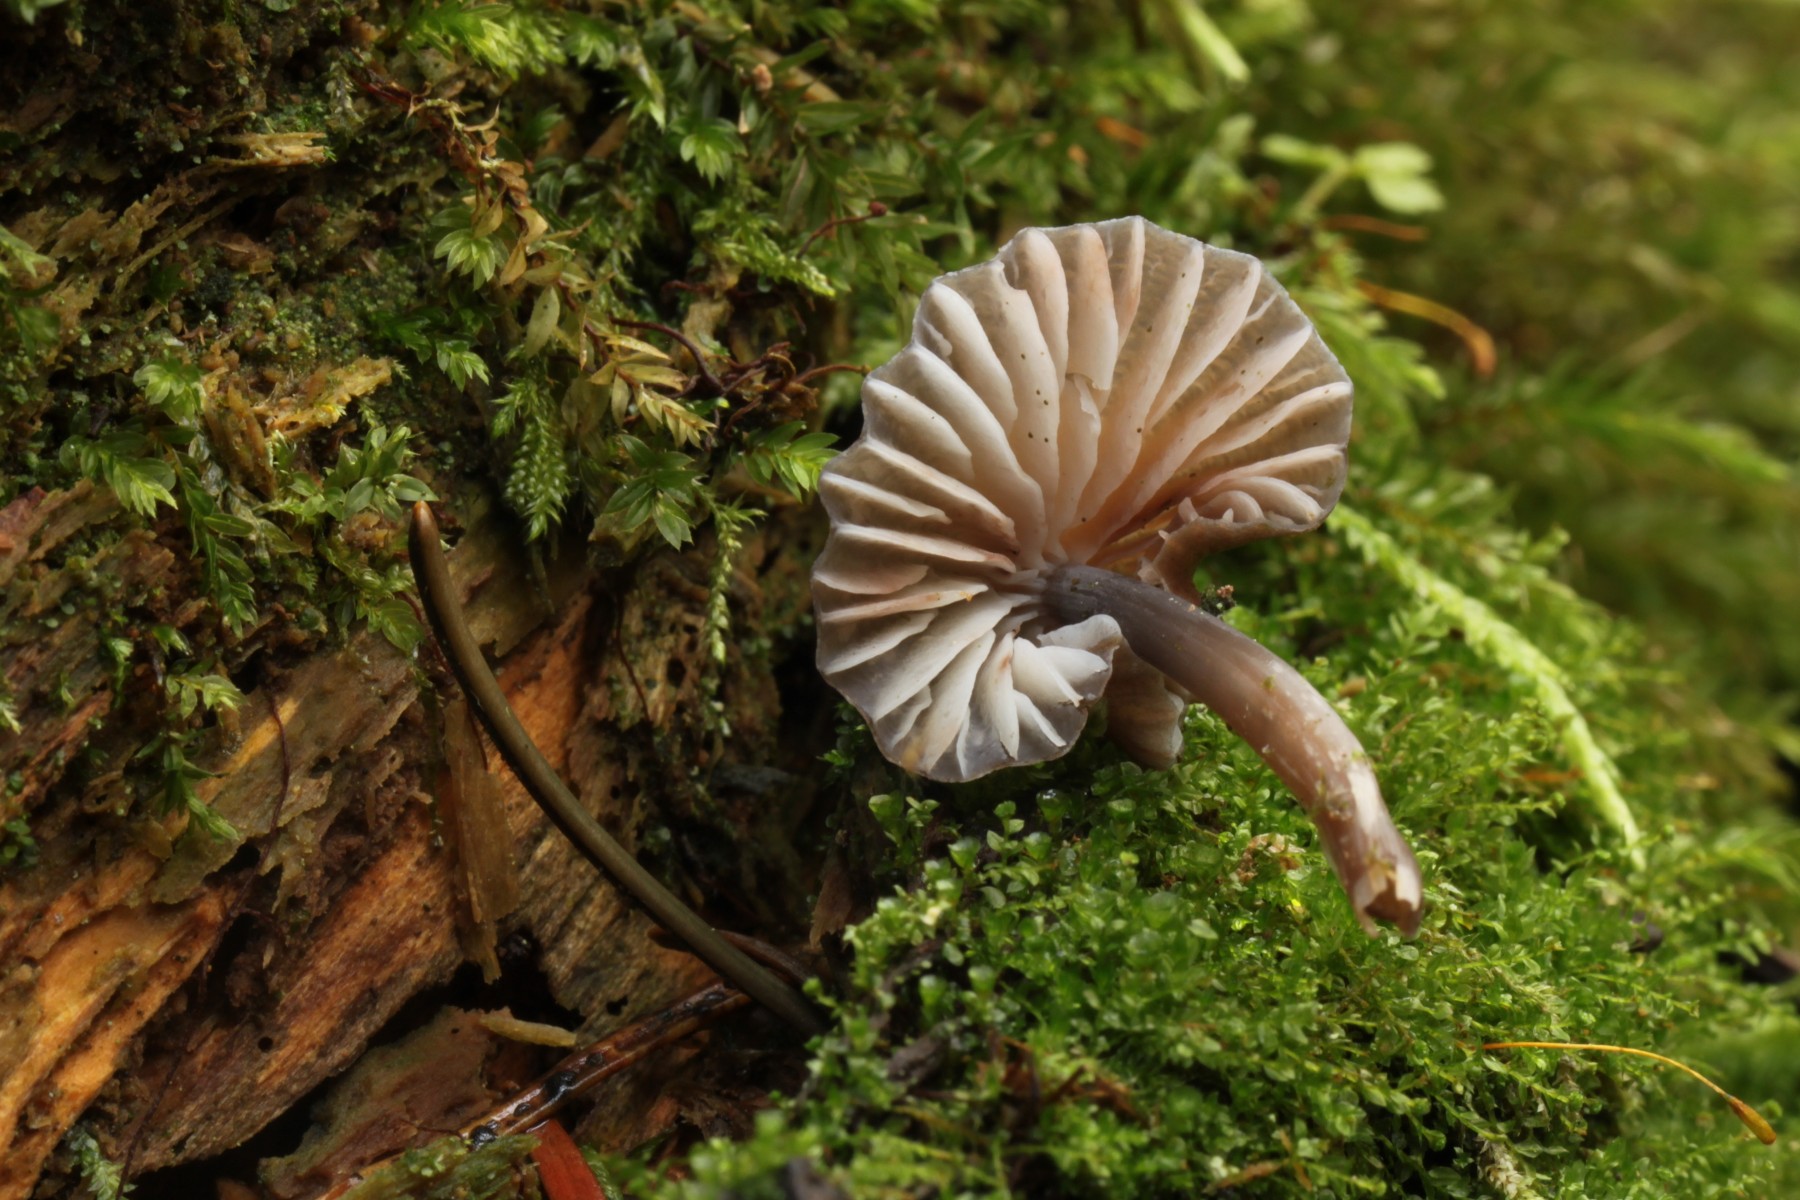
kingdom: Fungi
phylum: Basidiomycota
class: Agaricomycetes
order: Agaricales
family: Mycenaceae
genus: Mycena
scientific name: Mycena silvae-nigrae
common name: tidlig huesvamp
